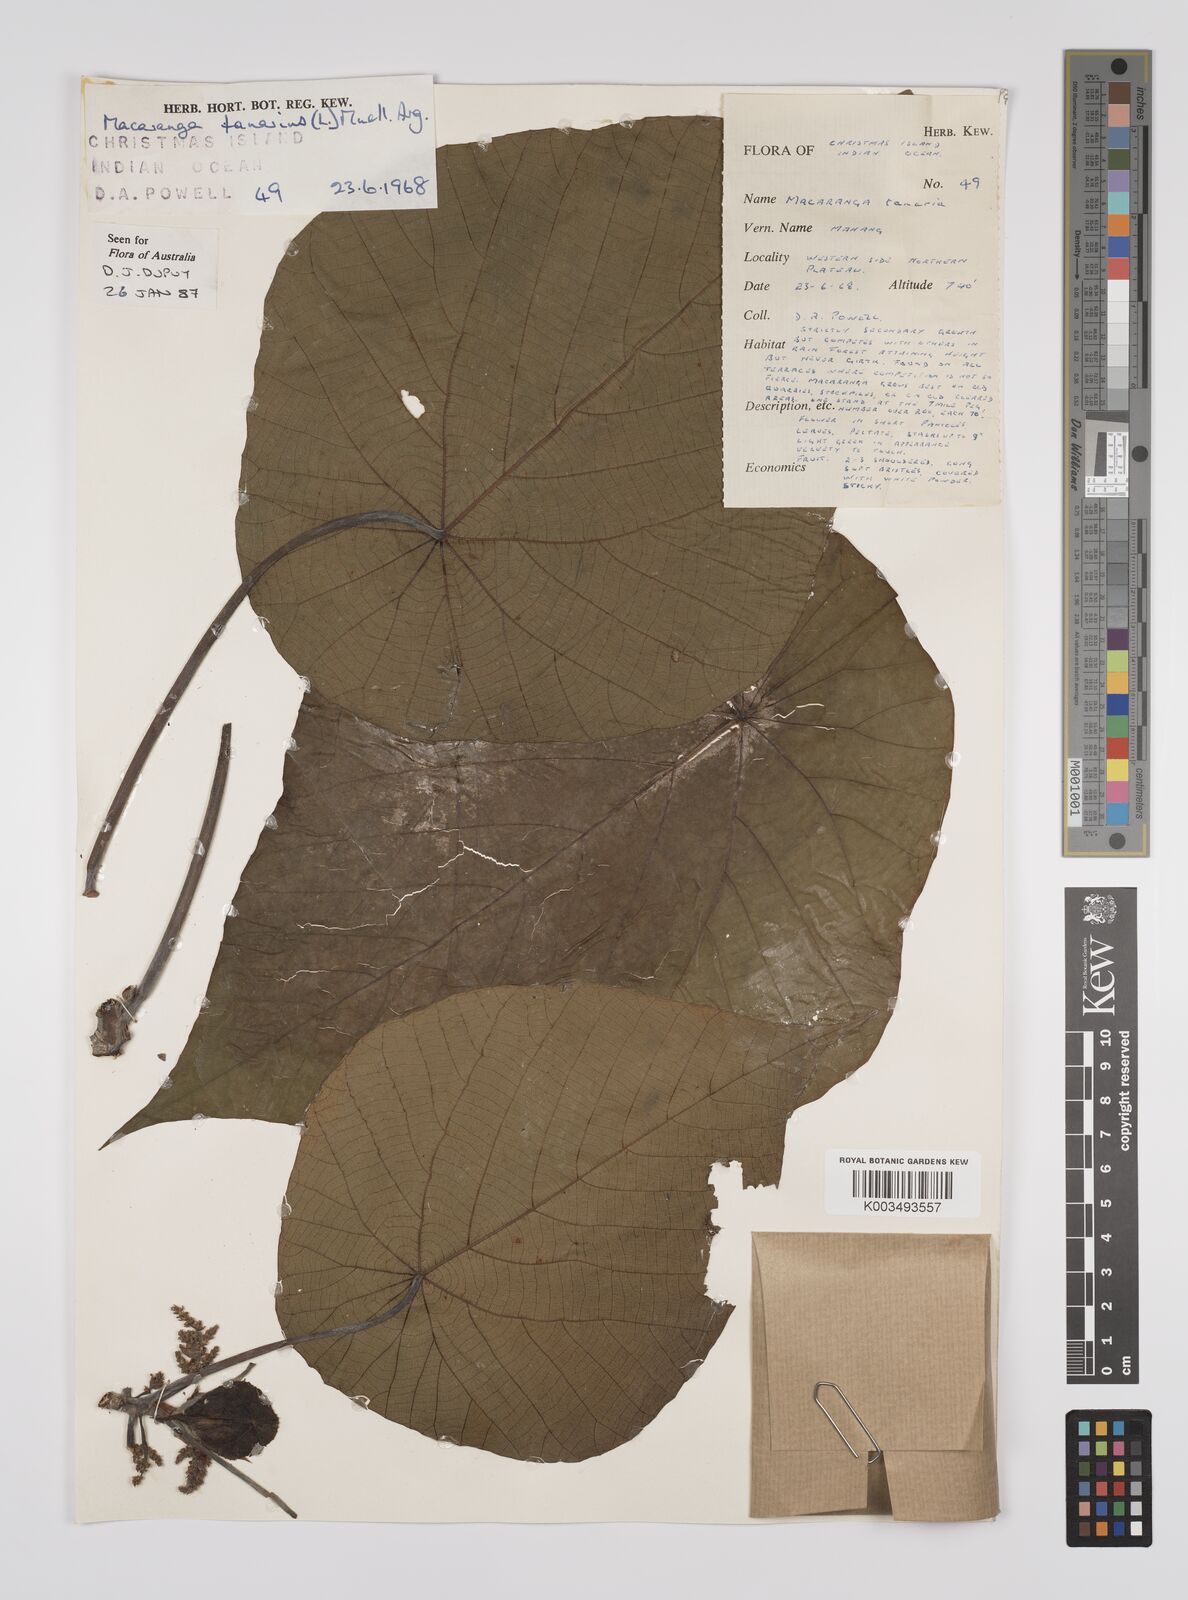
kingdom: Plantae
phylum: Tracheophyta
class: Magnoliopsida
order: Malpighiales
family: Euphorbiaceae
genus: Macaranga
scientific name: Macaranga tanarius
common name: Parasol leaf tree
